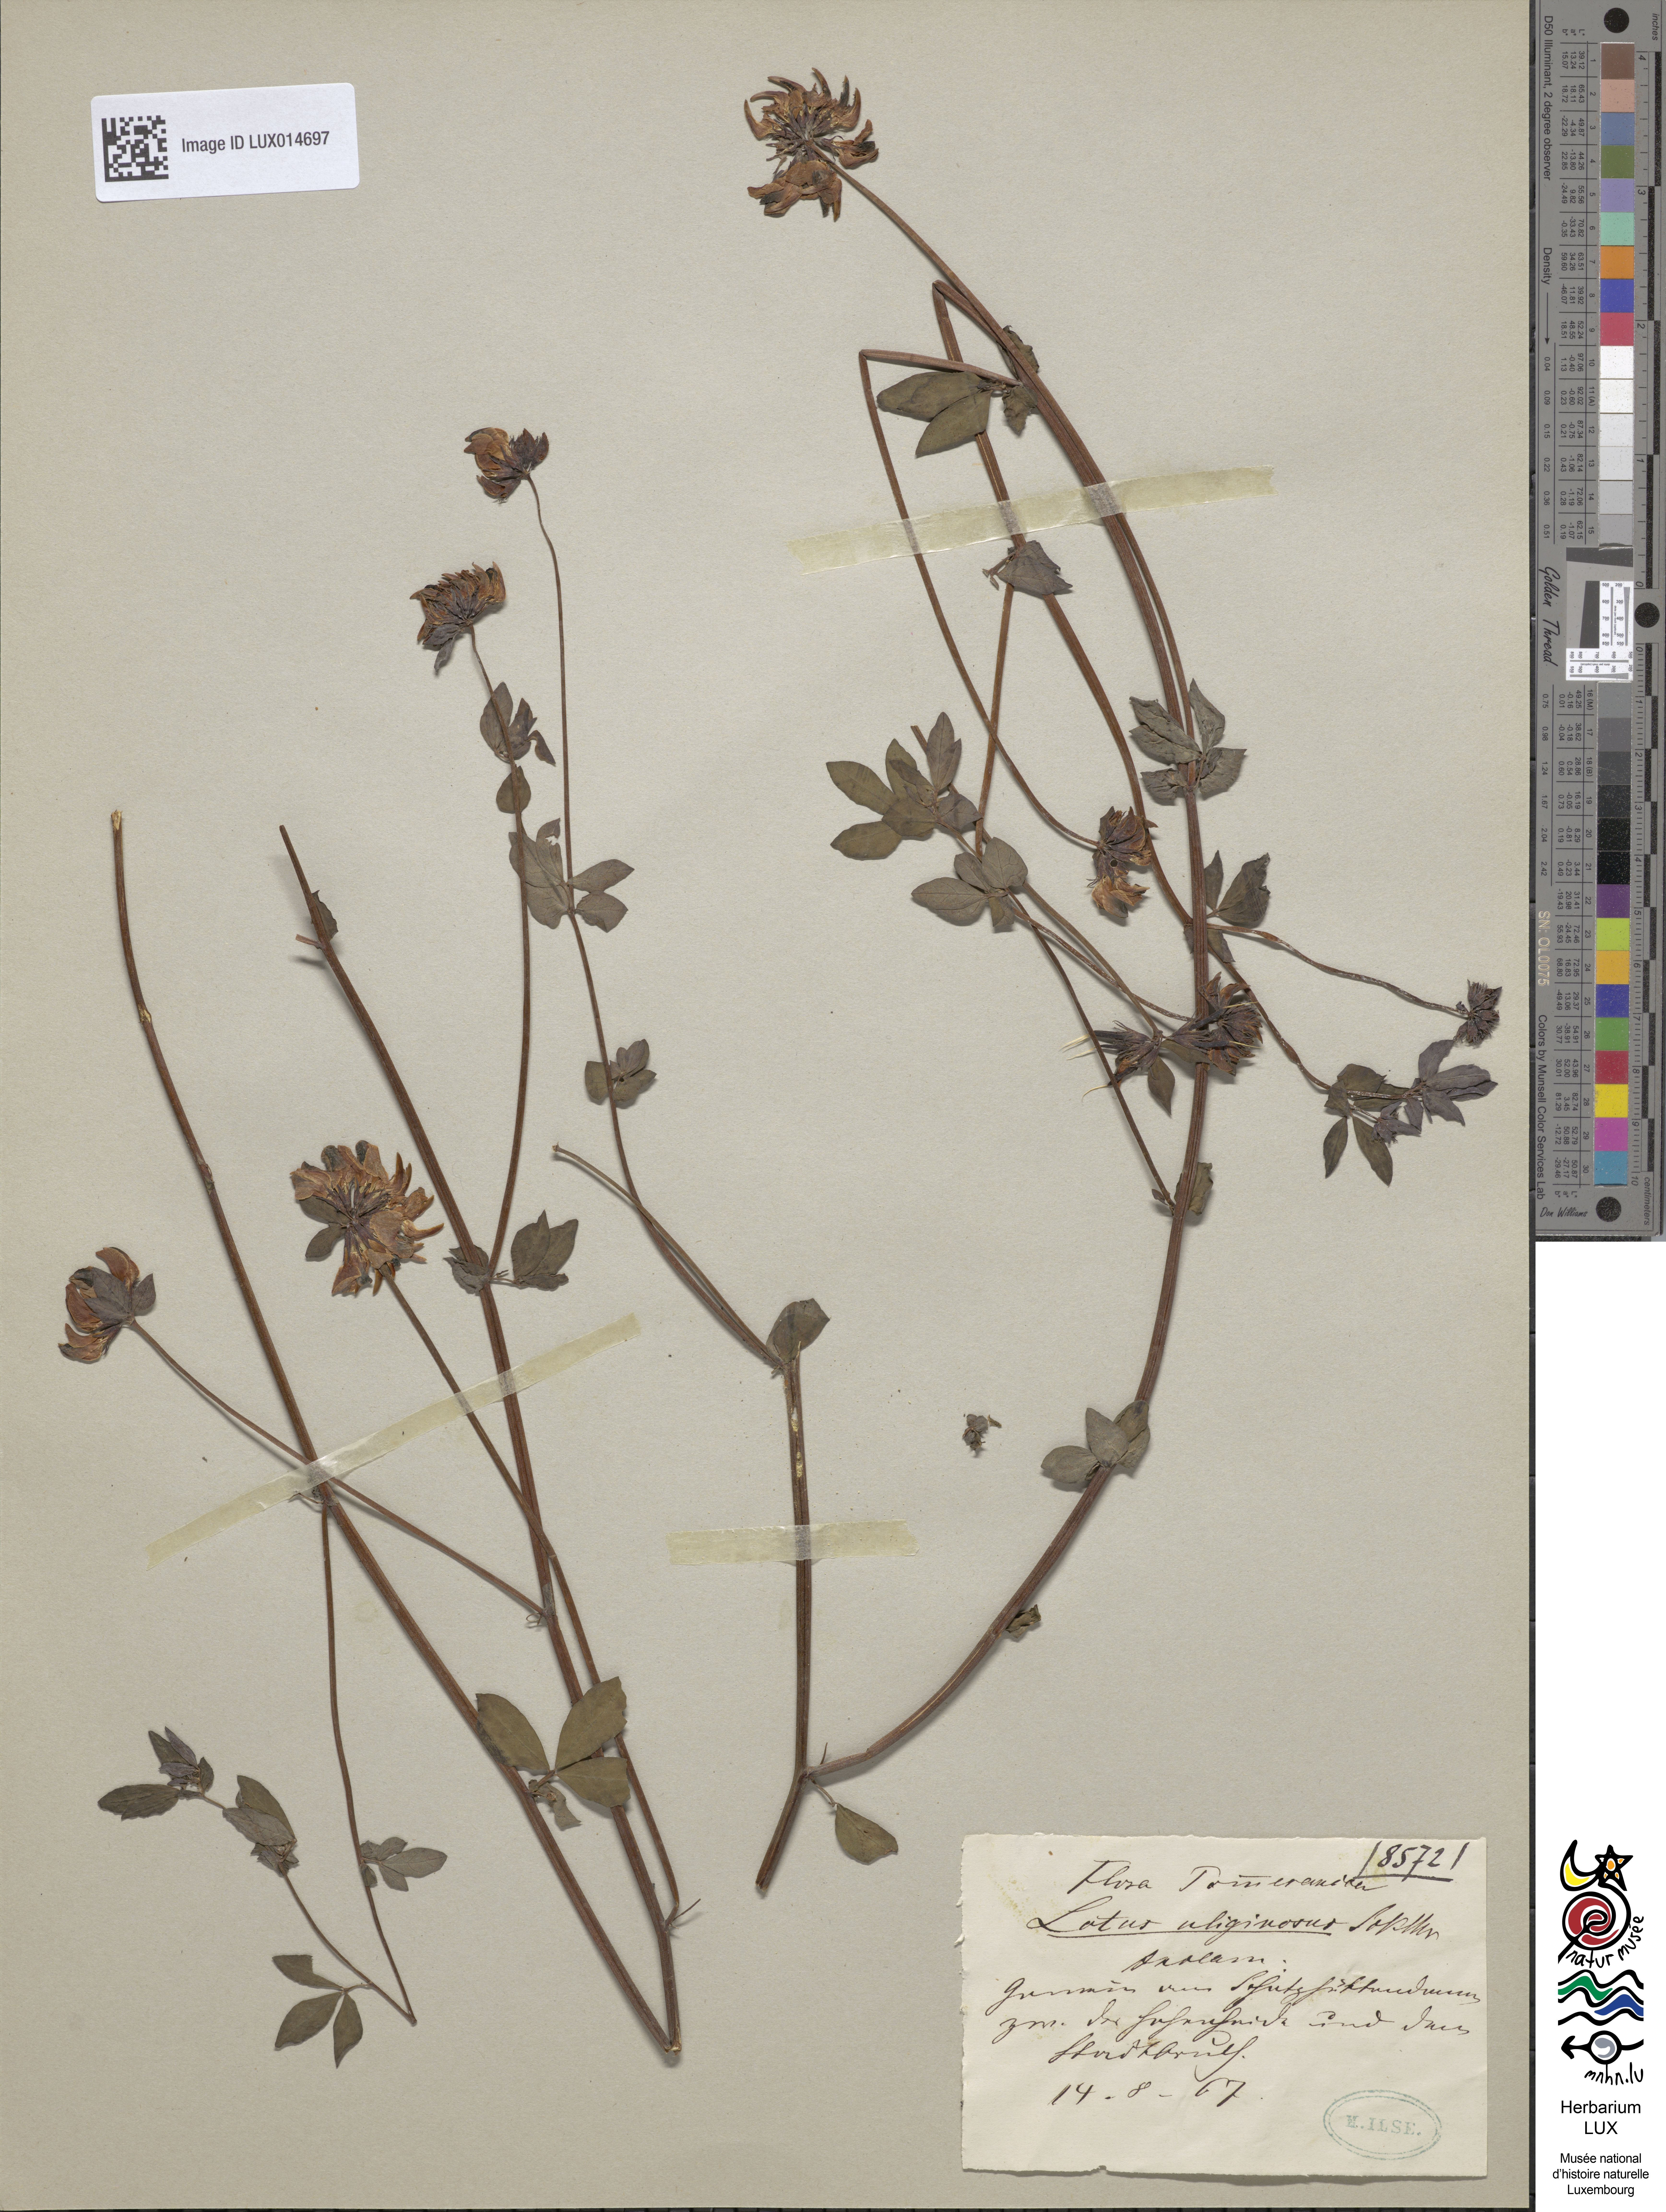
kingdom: Plantae
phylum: Tracheophyta
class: Magnoliopsida
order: Fabales
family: Fabaceae
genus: Lotus
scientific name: Lotus pedunculatus
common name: Greater birdsfoot-trefoil
